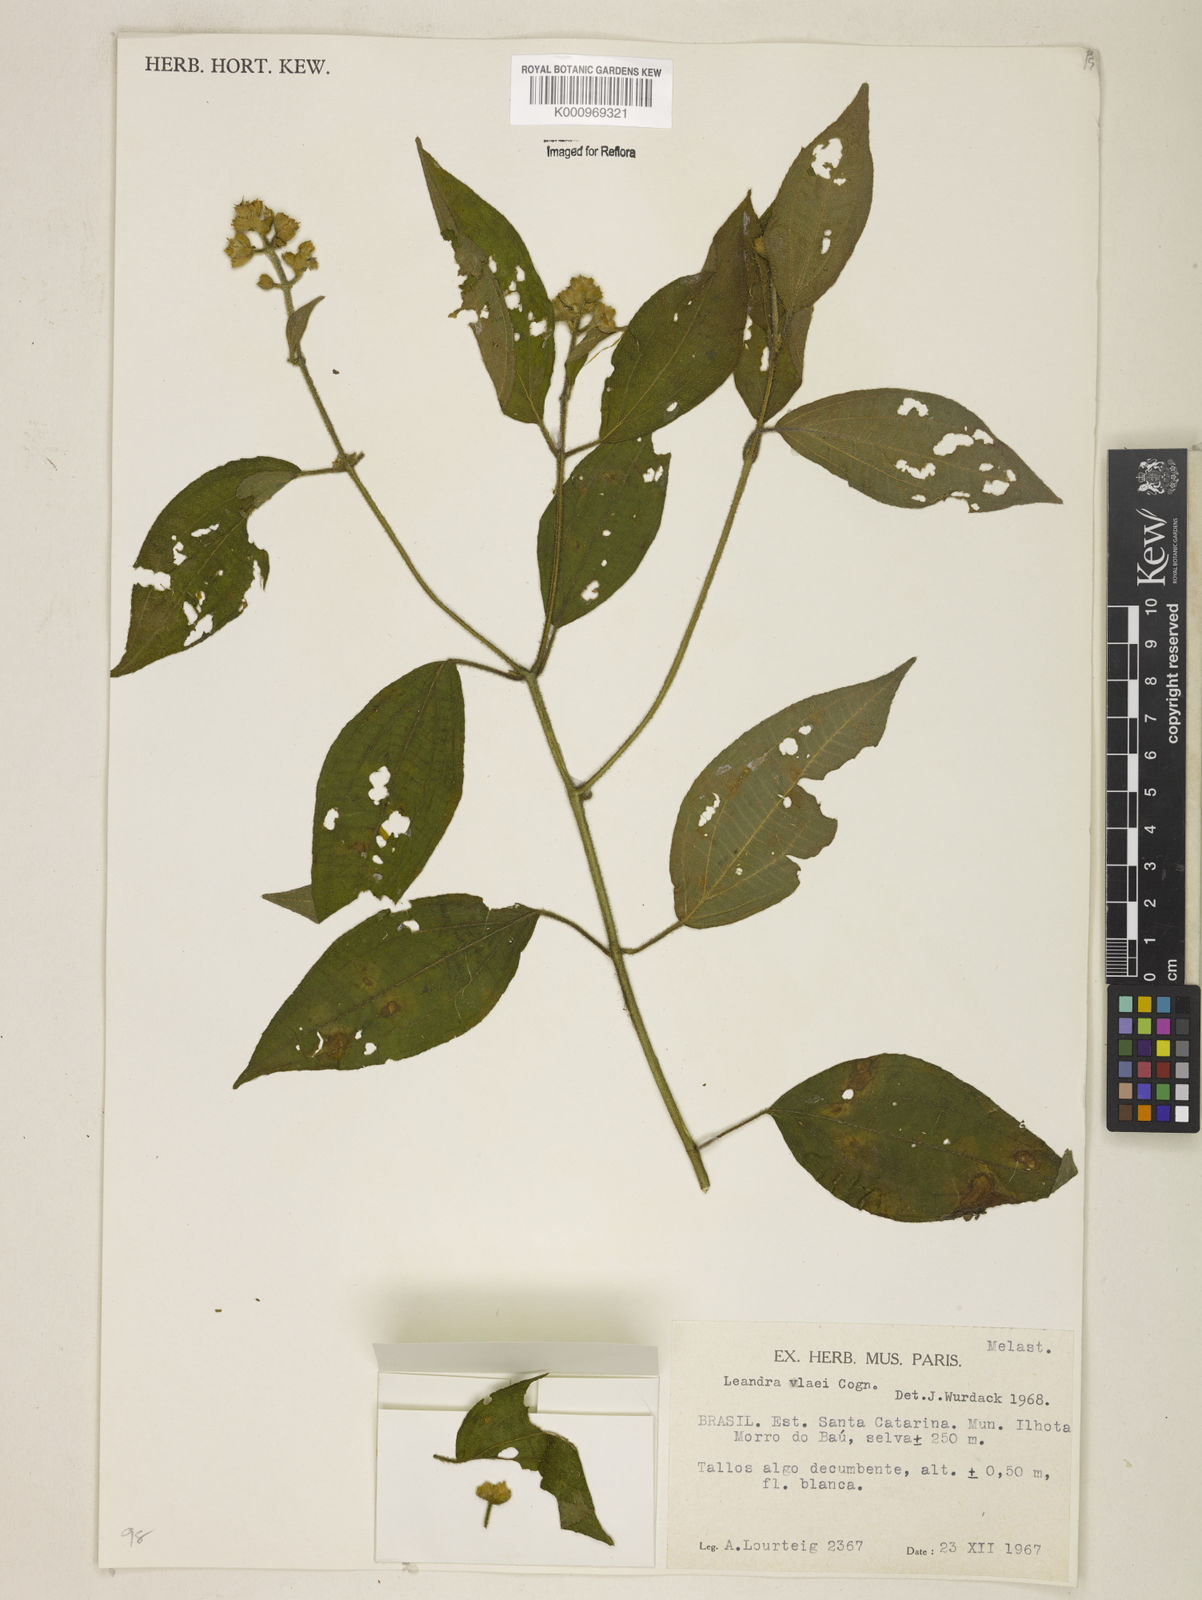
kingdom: Plantae
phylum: Tracheophyta
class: Magnoliopsida
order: Myrtales
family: Melastomataceae
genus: Miconia
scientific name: Miconia ulei
